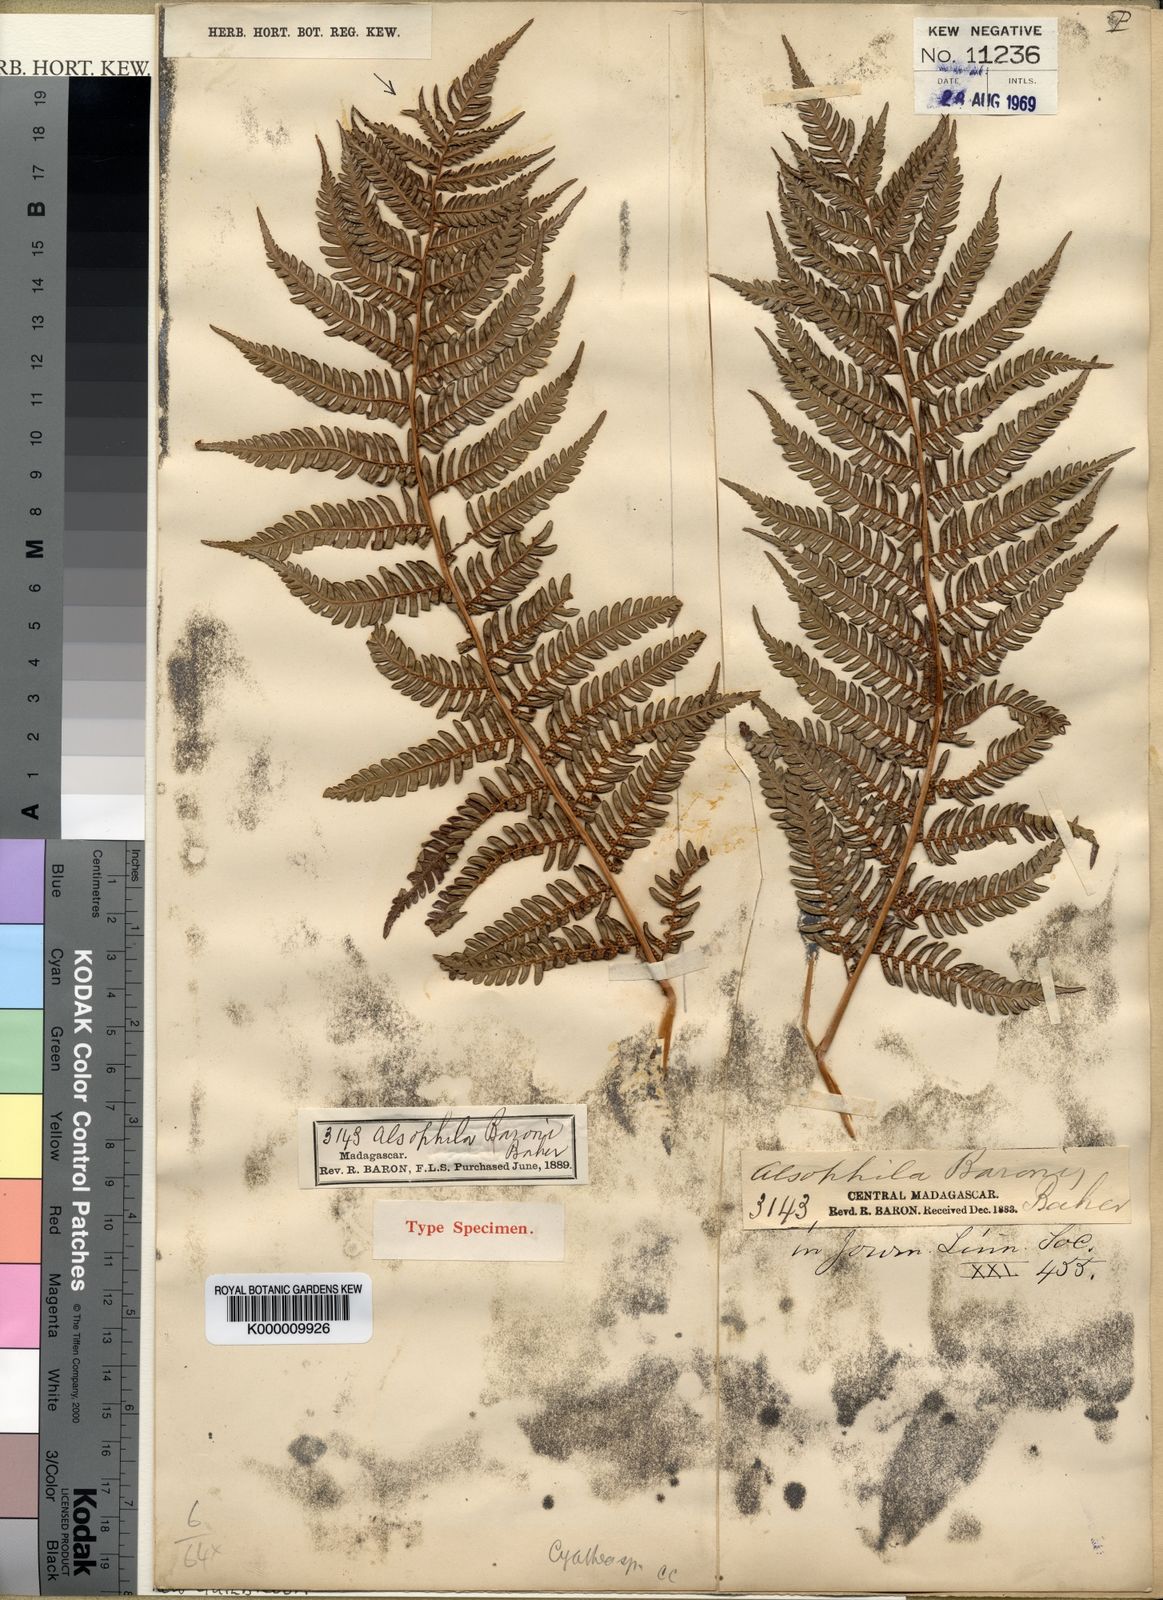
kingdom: Plantae
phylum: Tracheophyta
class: Polypodiopsida
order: Cyatheales
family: Cyatheaceae
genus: Alsophila
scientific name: Alsophila dregei
